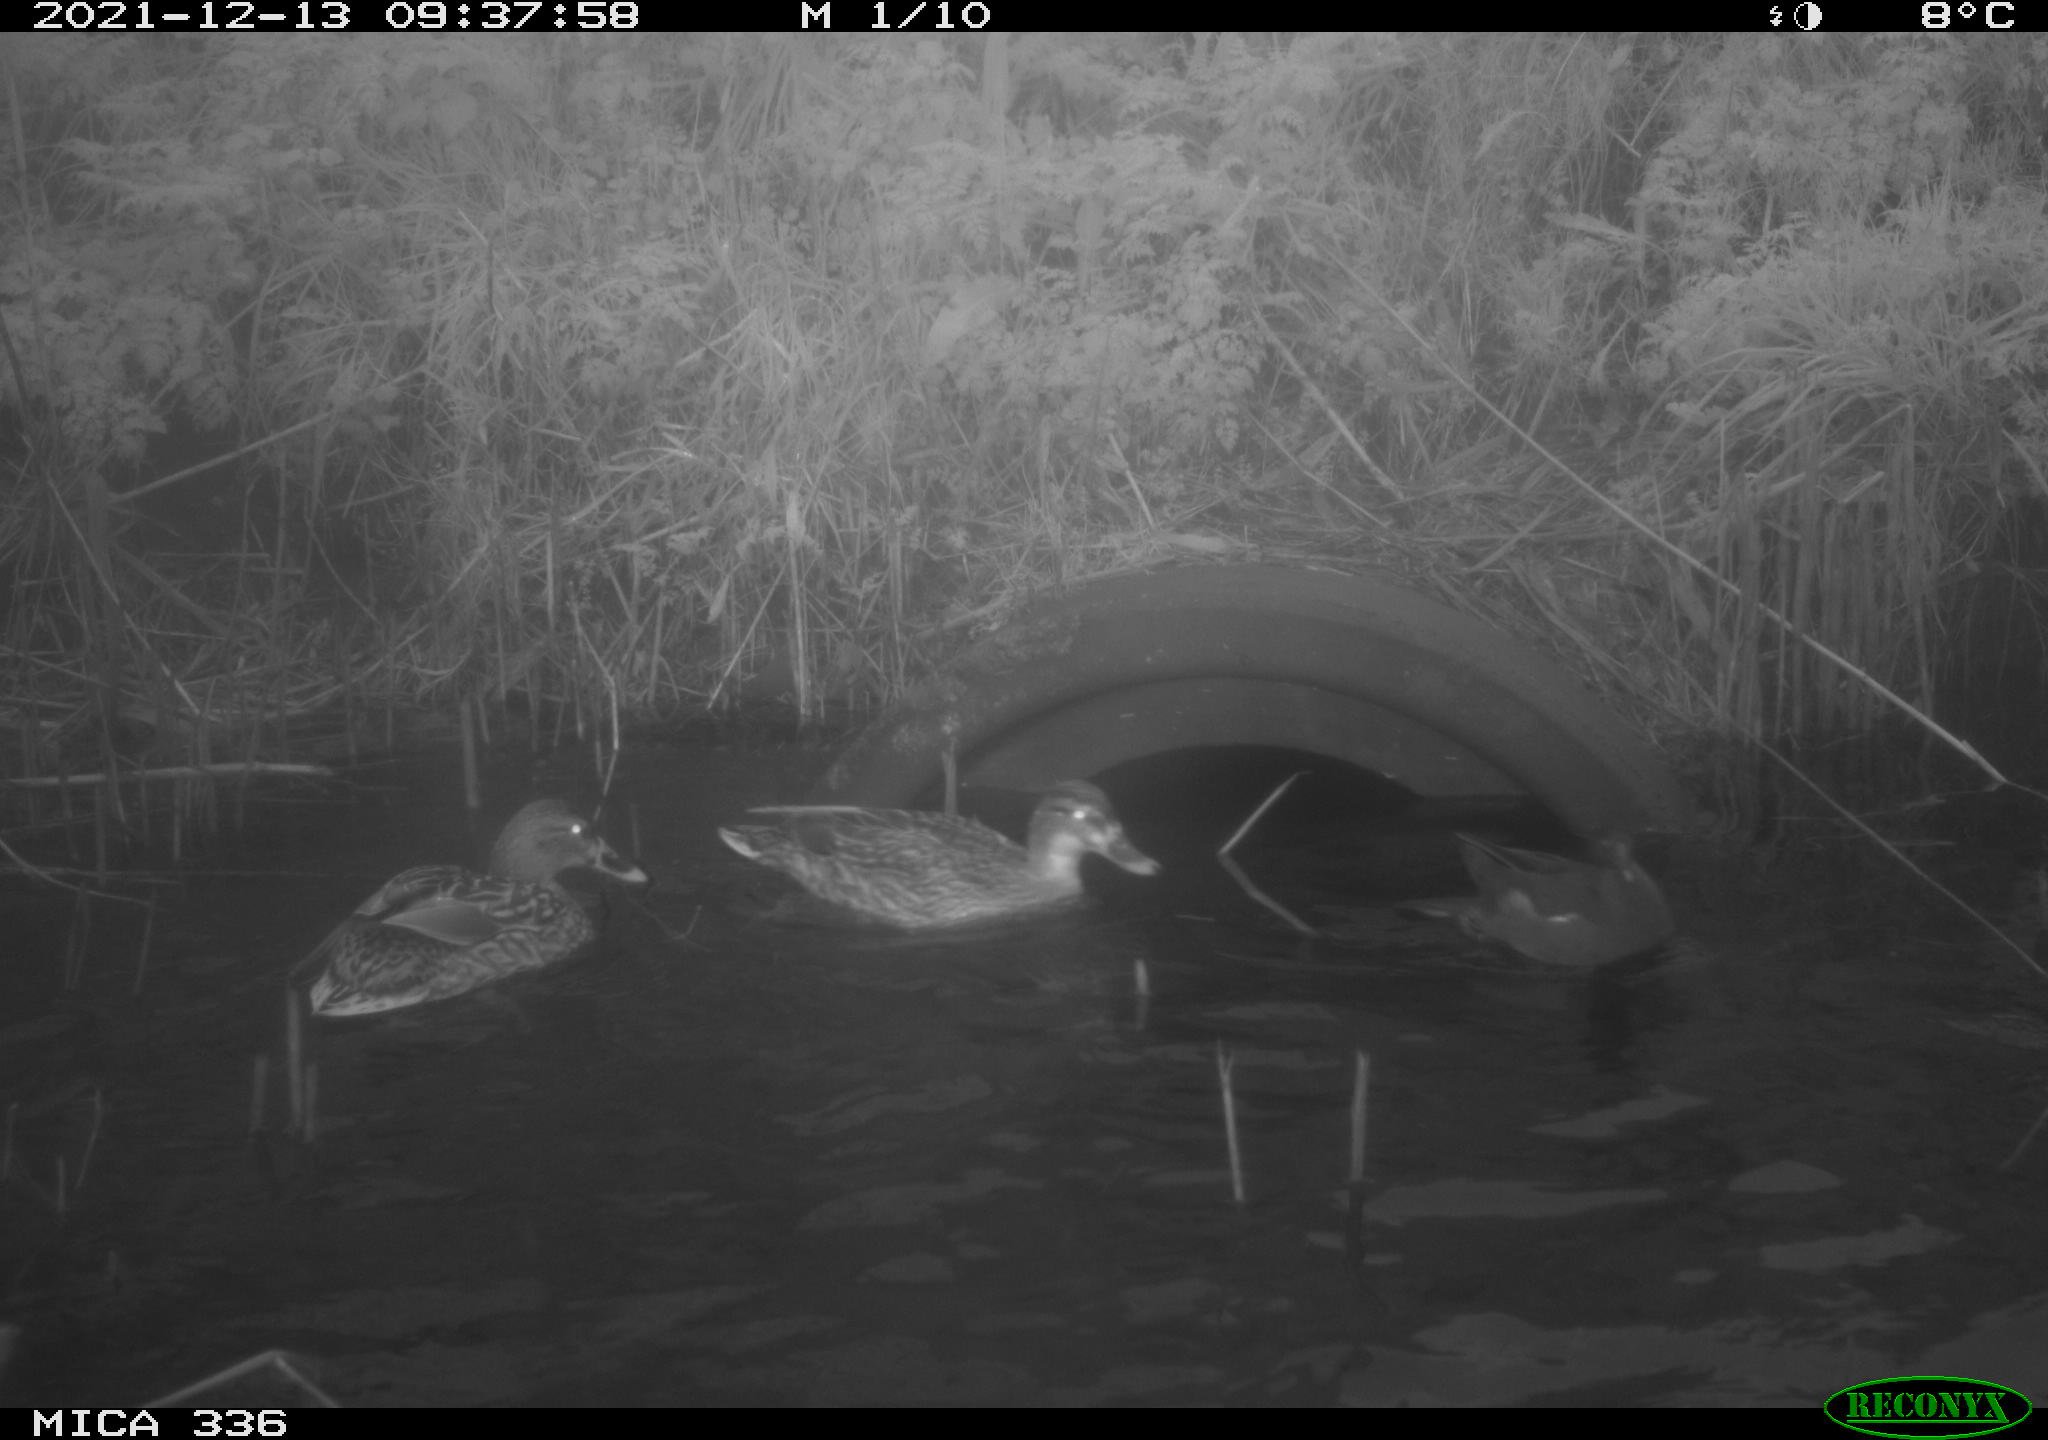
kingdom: Animalia
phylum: Chordata
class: Aves
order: Anseriformes
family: Anatidae
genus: Anas
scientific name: Anas platyrhynchos
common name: Mallard
